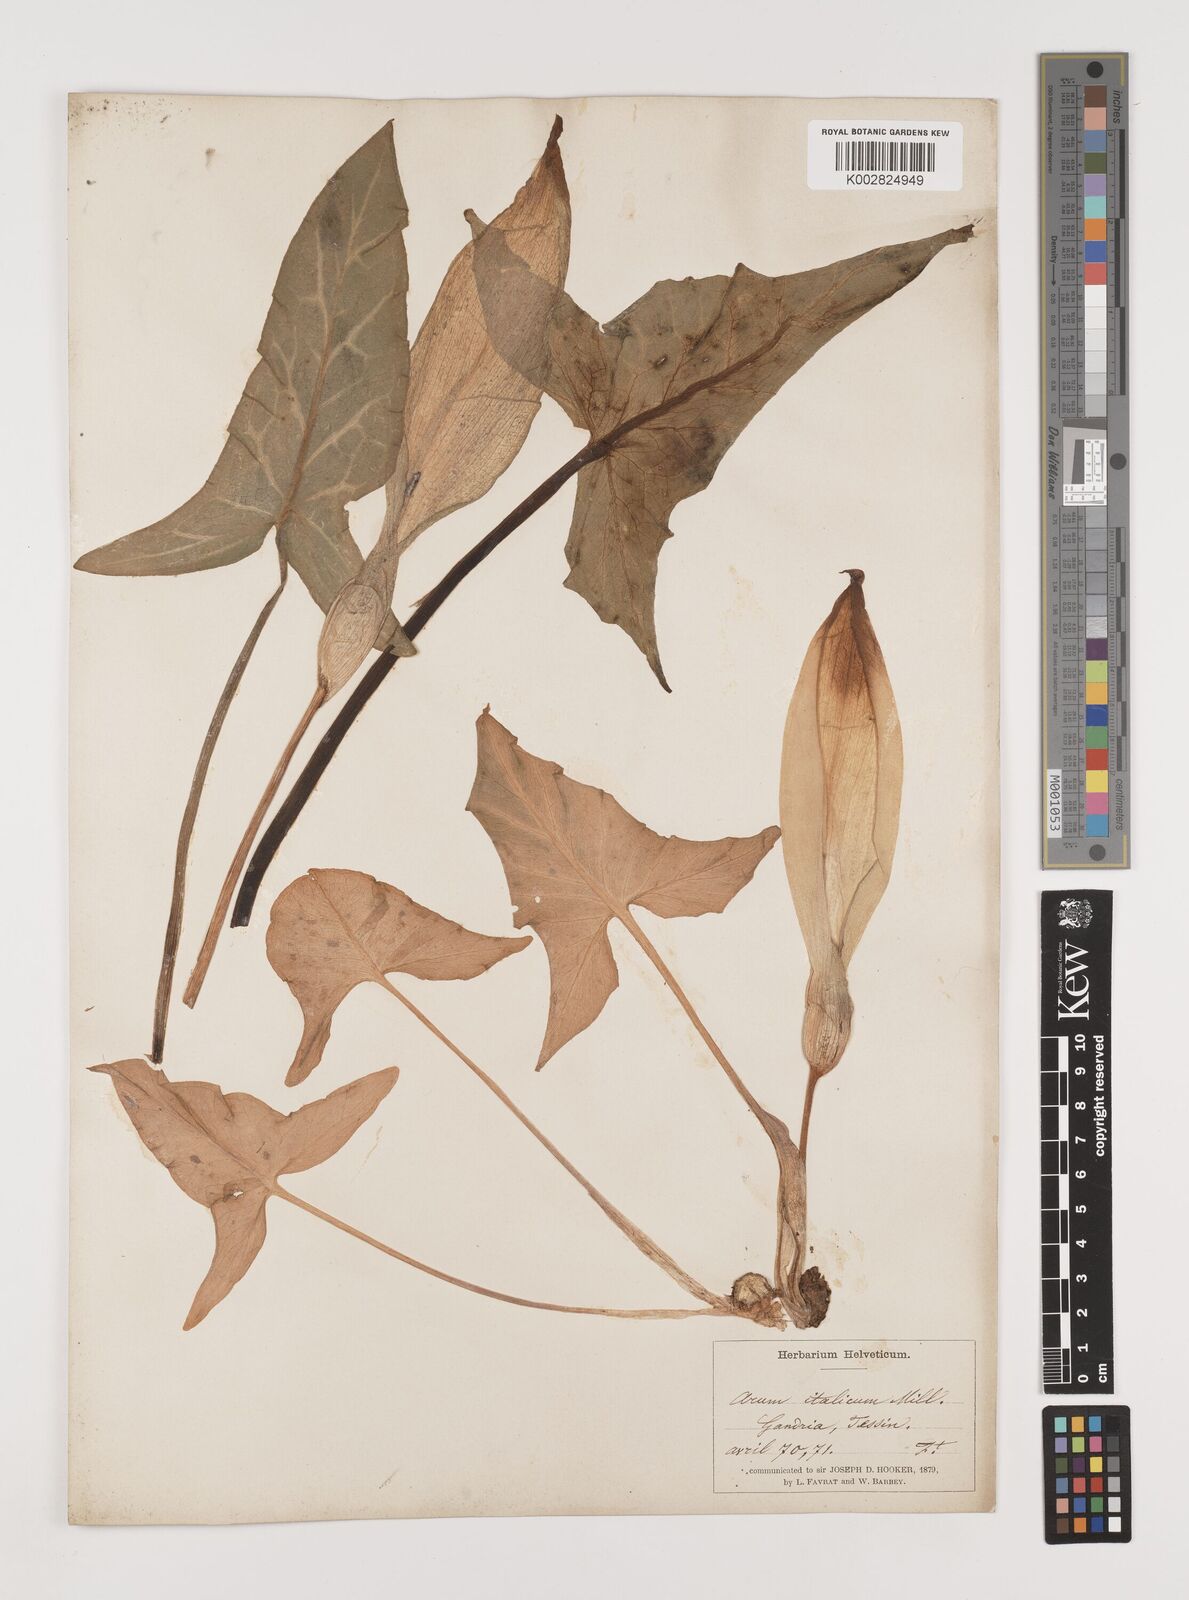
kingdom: Plantae
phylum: Tracheophyta
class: Liliopsida
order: Alismatales
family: Araceae
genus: Arum
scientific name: Arum italicum
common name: Italian lords-and-ladies
